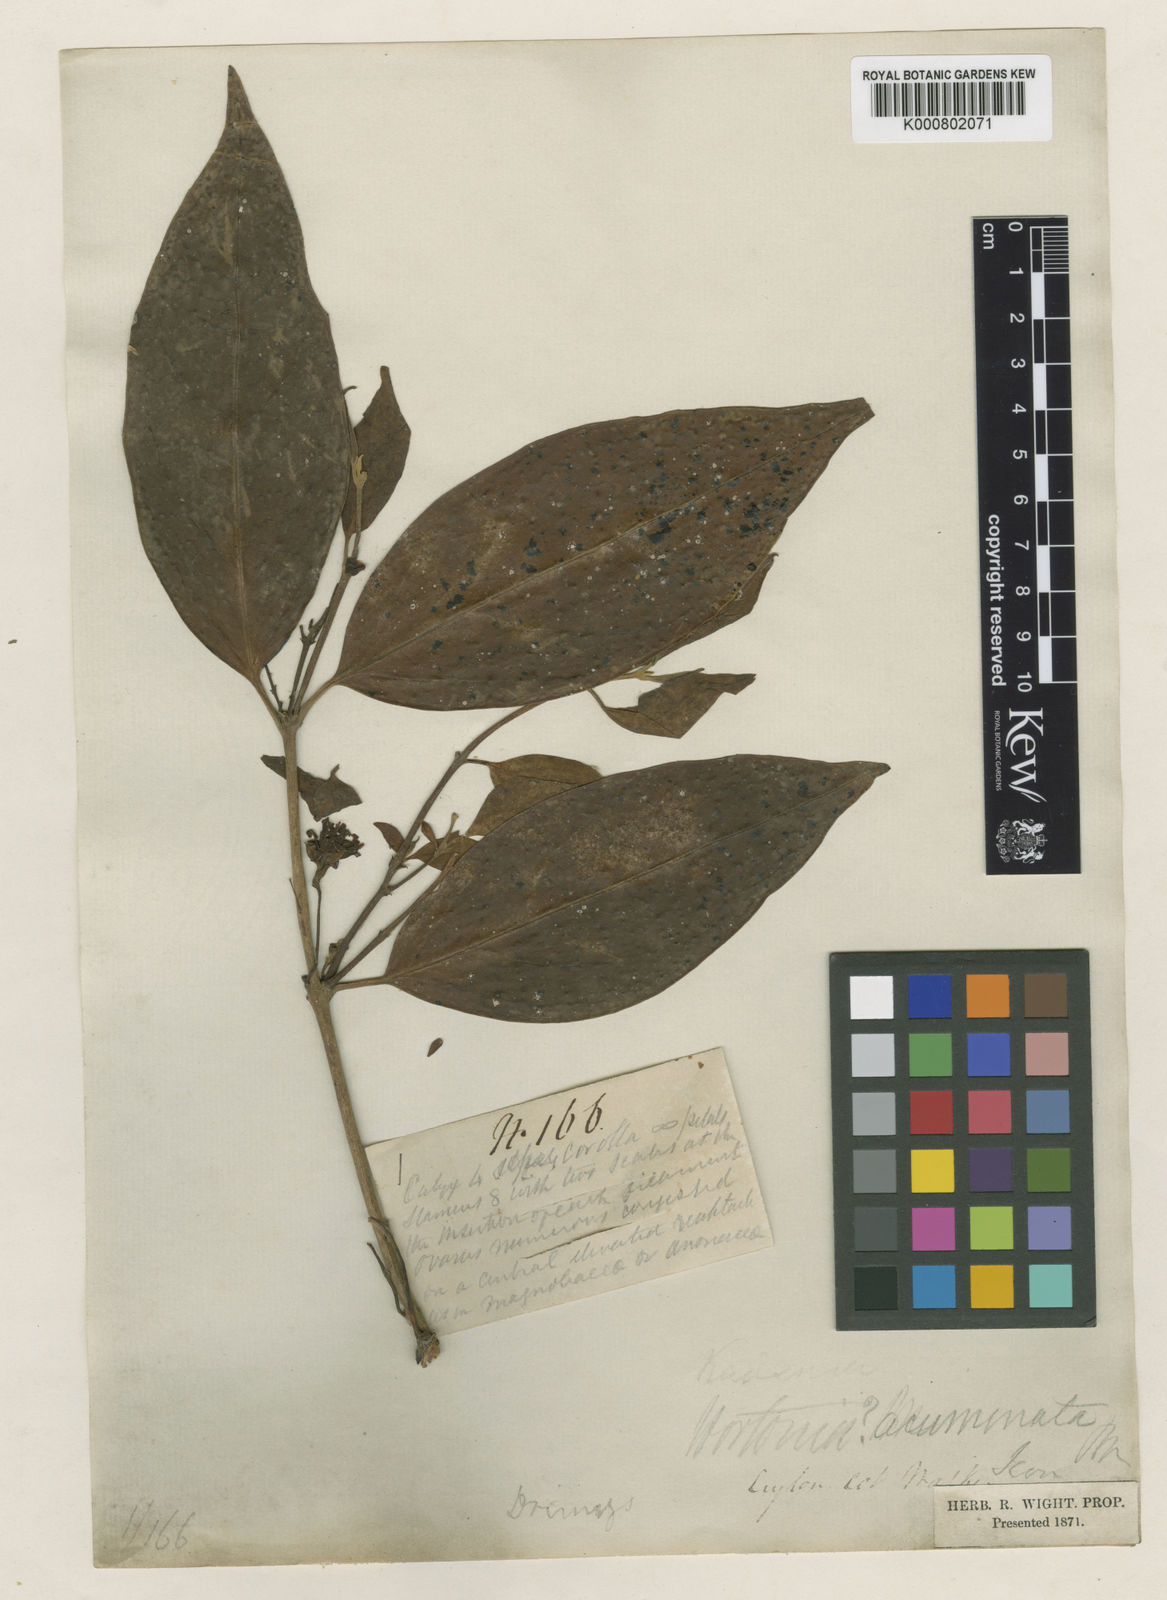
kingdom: Plantae
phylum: Tracheophyta
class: Magnoliopsida
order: Laurales
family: Monimiaceae
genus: Hortonia
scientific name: Hortonia floribunda
